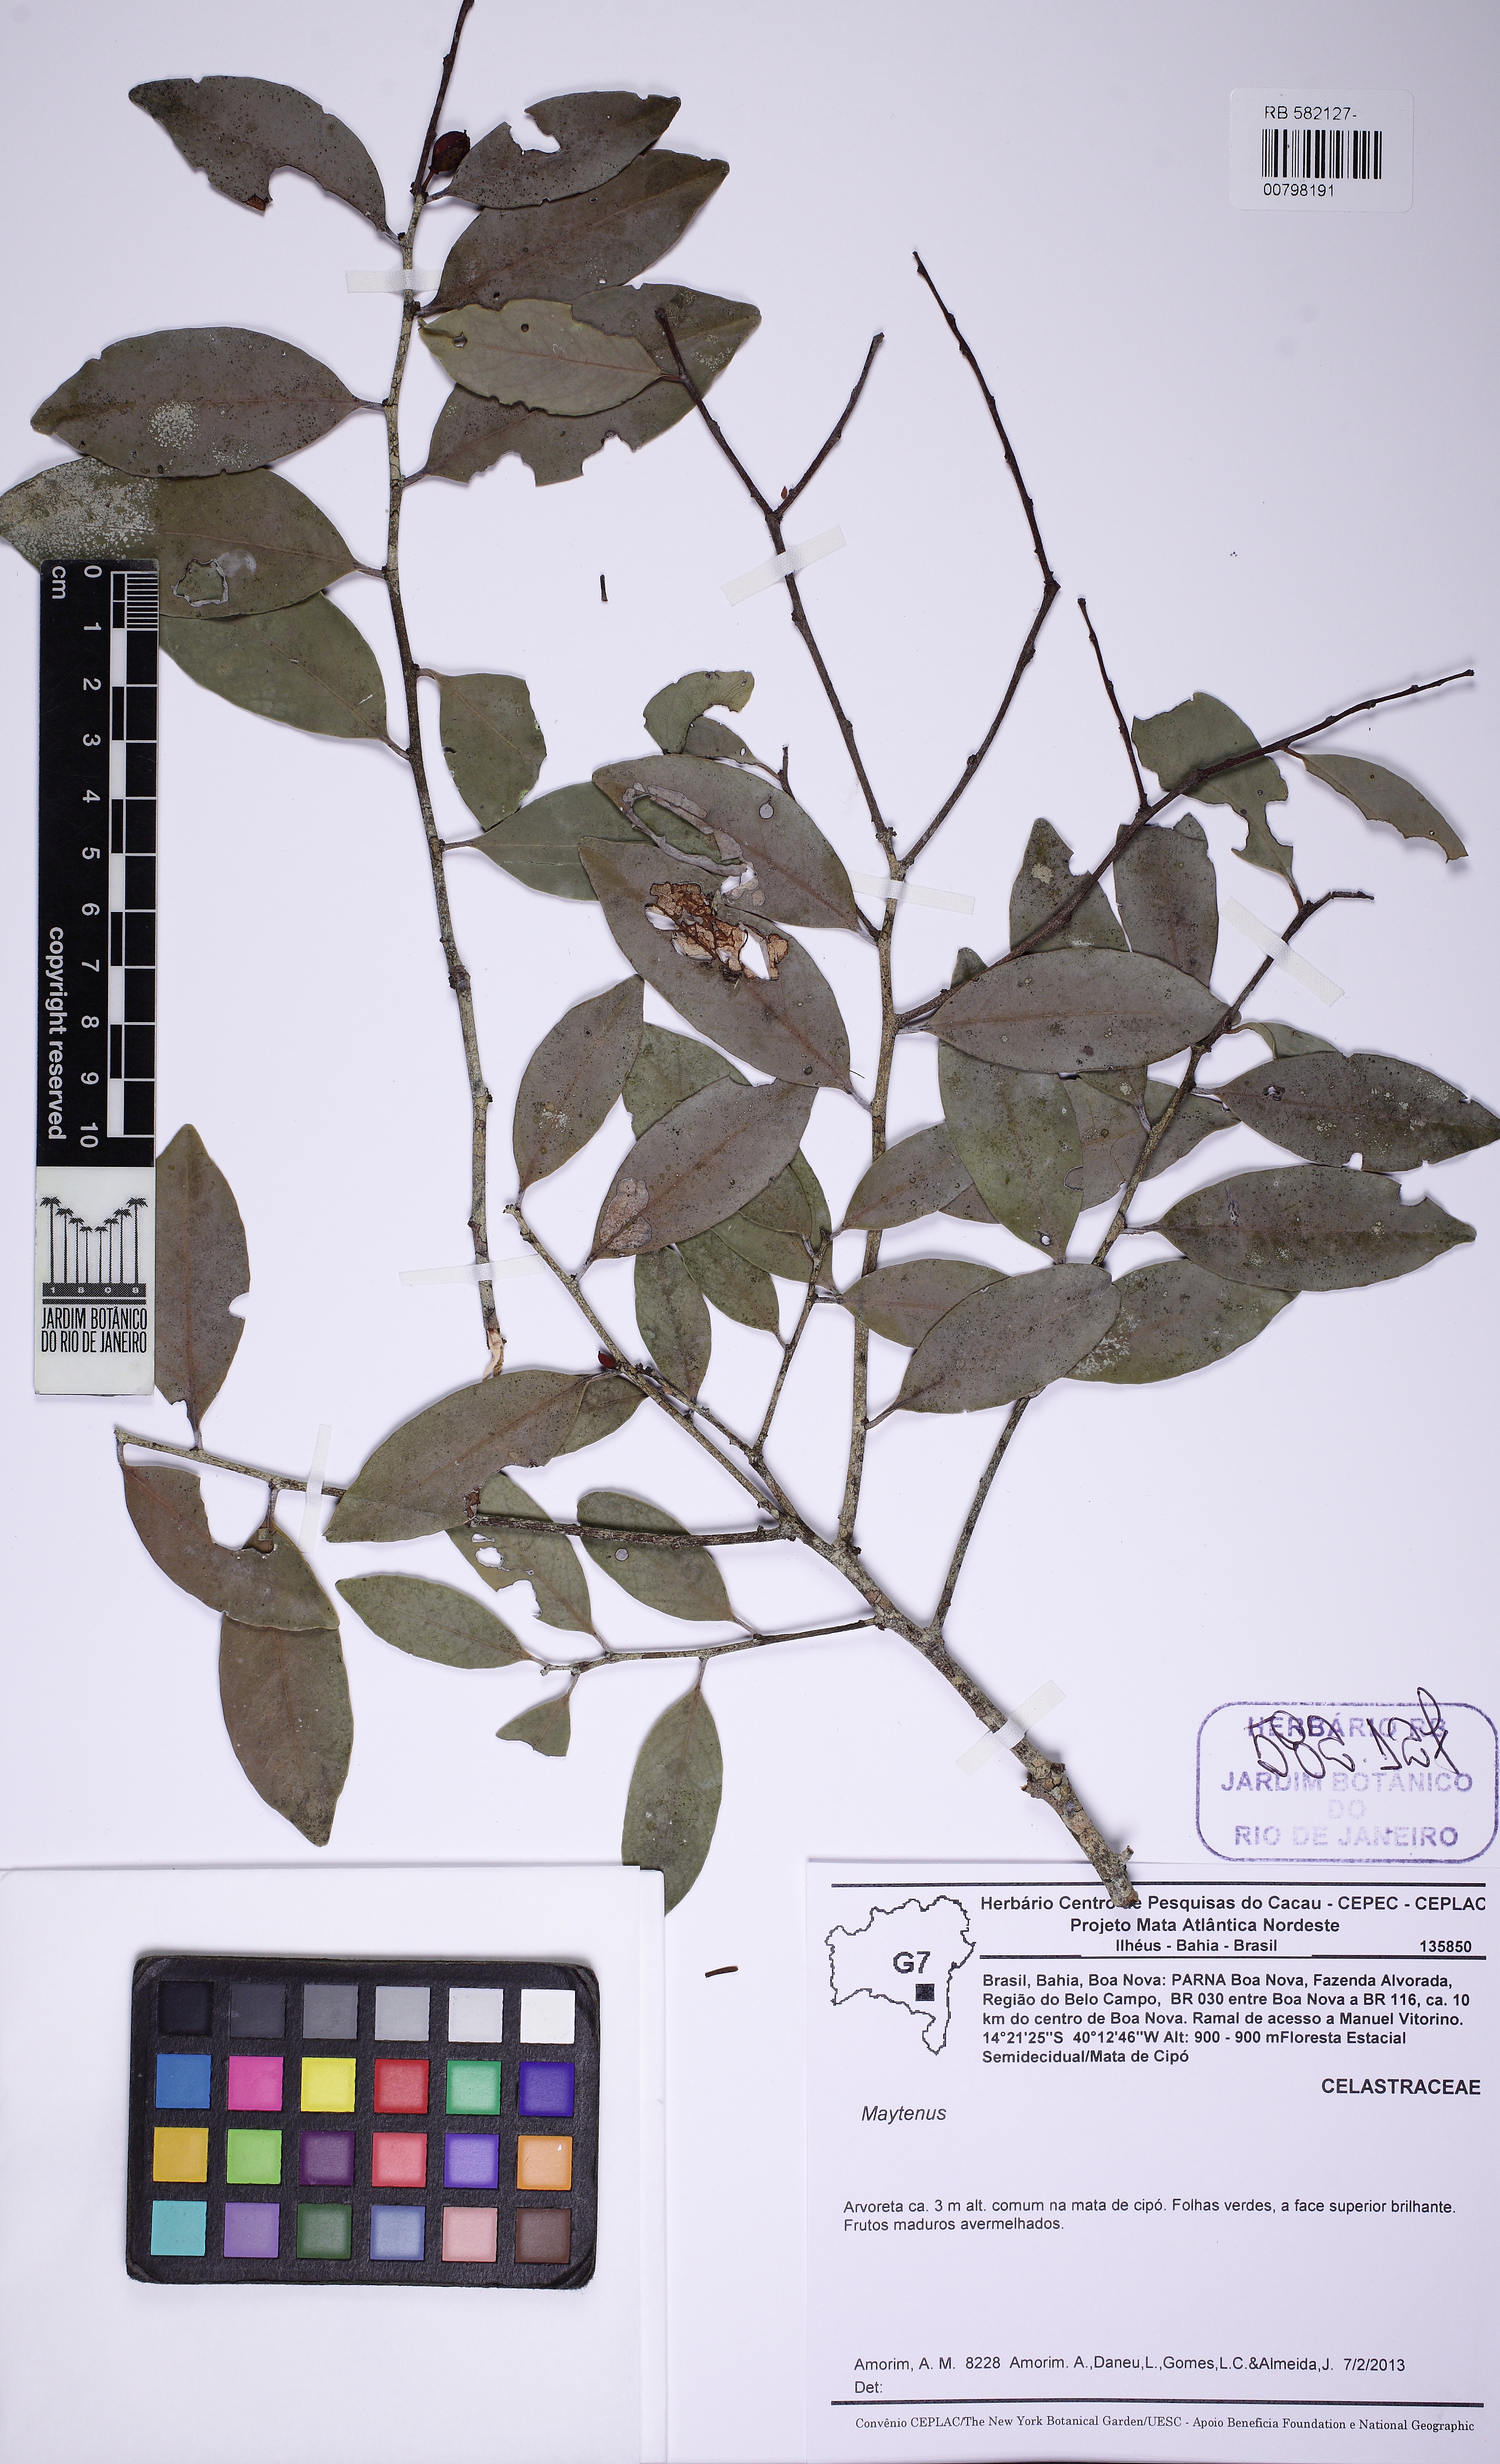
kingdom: Plantae
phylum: Tracheophyta
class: Magnoliopsida
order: Celastrales
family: Celastraceae
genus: Monteverdia
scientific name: Monteverdia distichophylla
